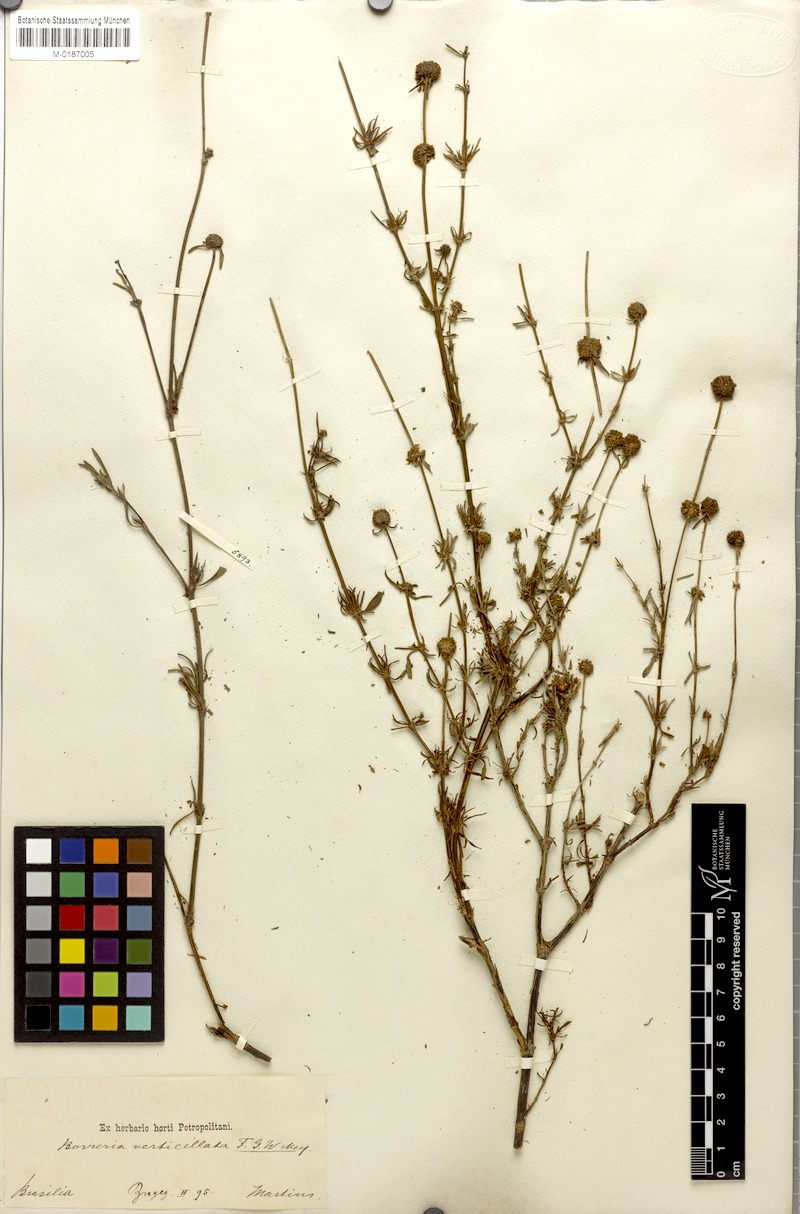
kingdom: Plantae
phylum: Tracheophyta
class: Magnoliopsida
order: Gentianales
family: Rubiaceae
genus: Spermacoce
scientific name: Spermacoce verticillata
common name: Shrubby false buttonweed
